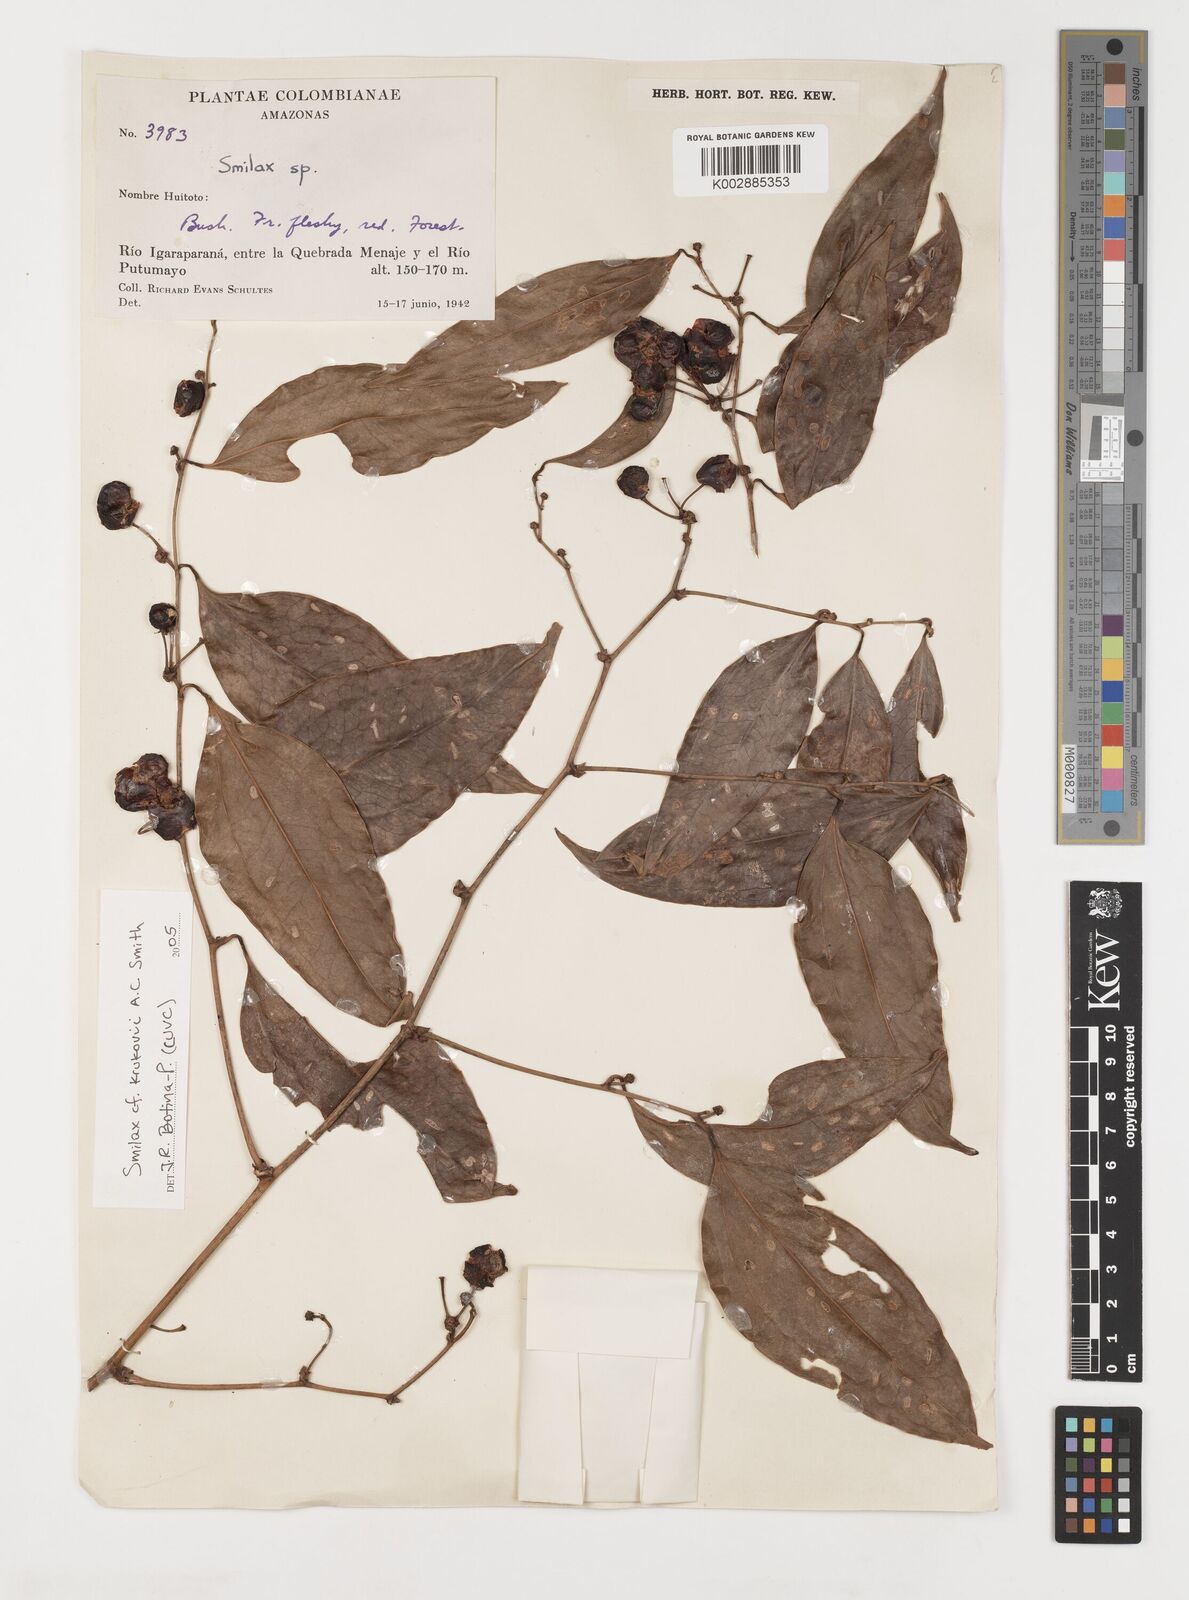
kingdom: Plantae
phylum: Tracheophyta
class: Liliopsida
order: Liliales
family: Smilacaceae
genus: Smilax
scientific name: Smilax domingensis
